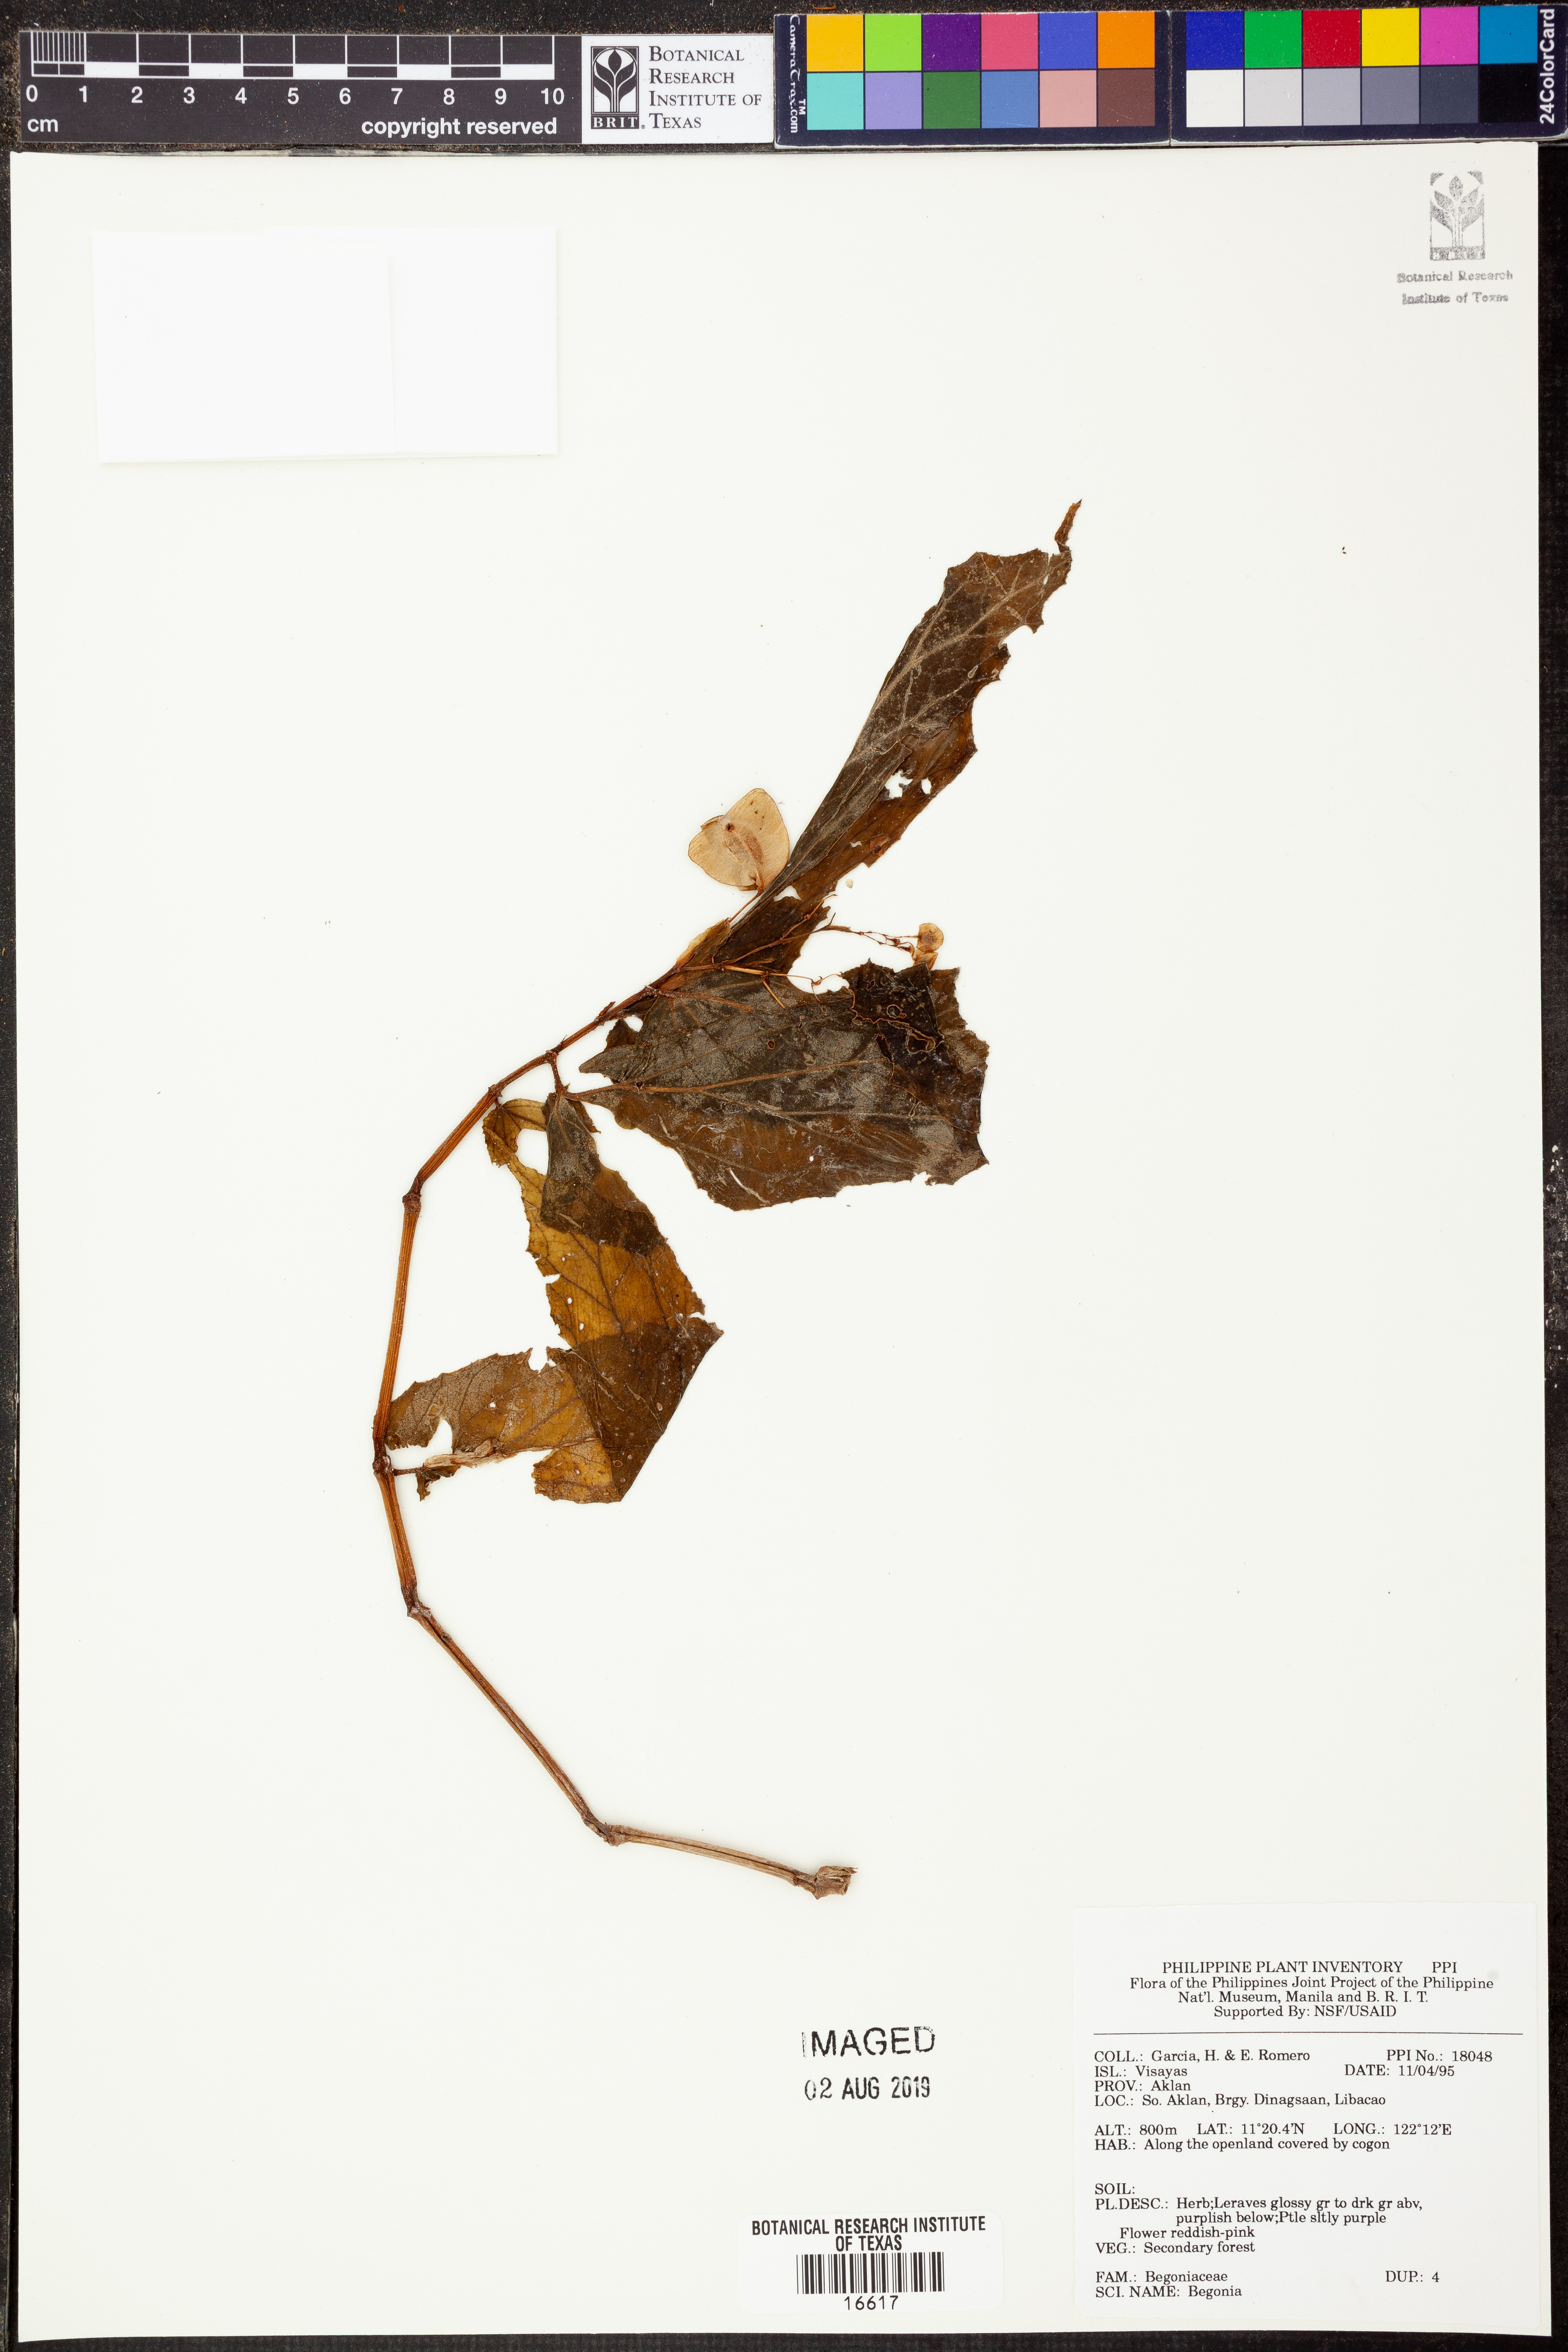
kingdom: Plantae
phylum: Tracheophyta
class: Magnoliopsida
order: Cucurbitales
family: Begoniaceae
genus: Begonia
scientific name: Begonia
